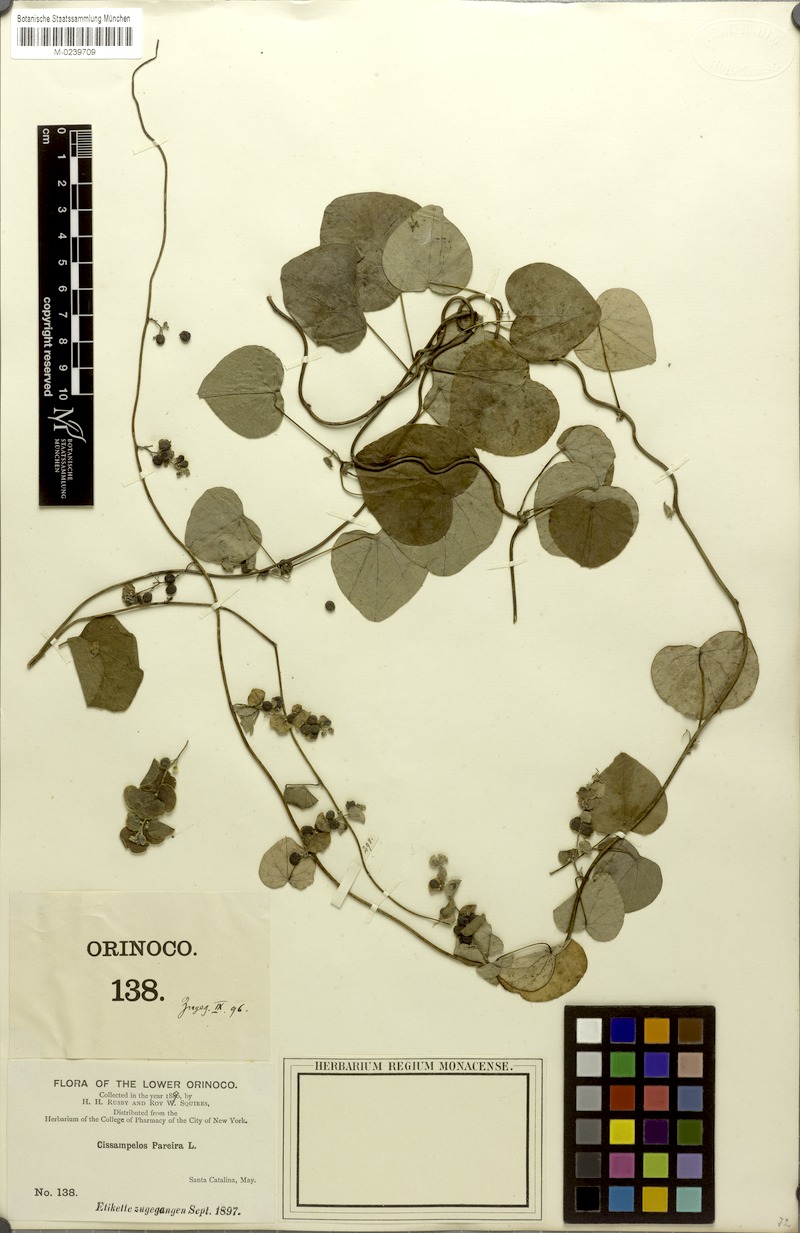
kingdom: Plantae
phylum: Tracheophyta
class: Magnoliopsida
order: Ranunculales
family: Menispermaceae
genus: Cissampelos
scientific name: Cissampelos pareira
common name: Velvetleaf
